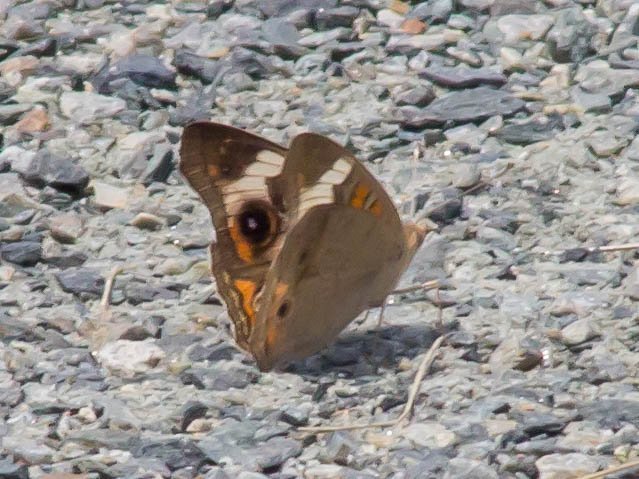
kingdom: Animalia
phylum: Arthropoda
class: Insecta
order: Lepidoptera
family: Nymphalidae
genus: Junonia
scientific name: Junonia coenia
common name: Common Buckeye
